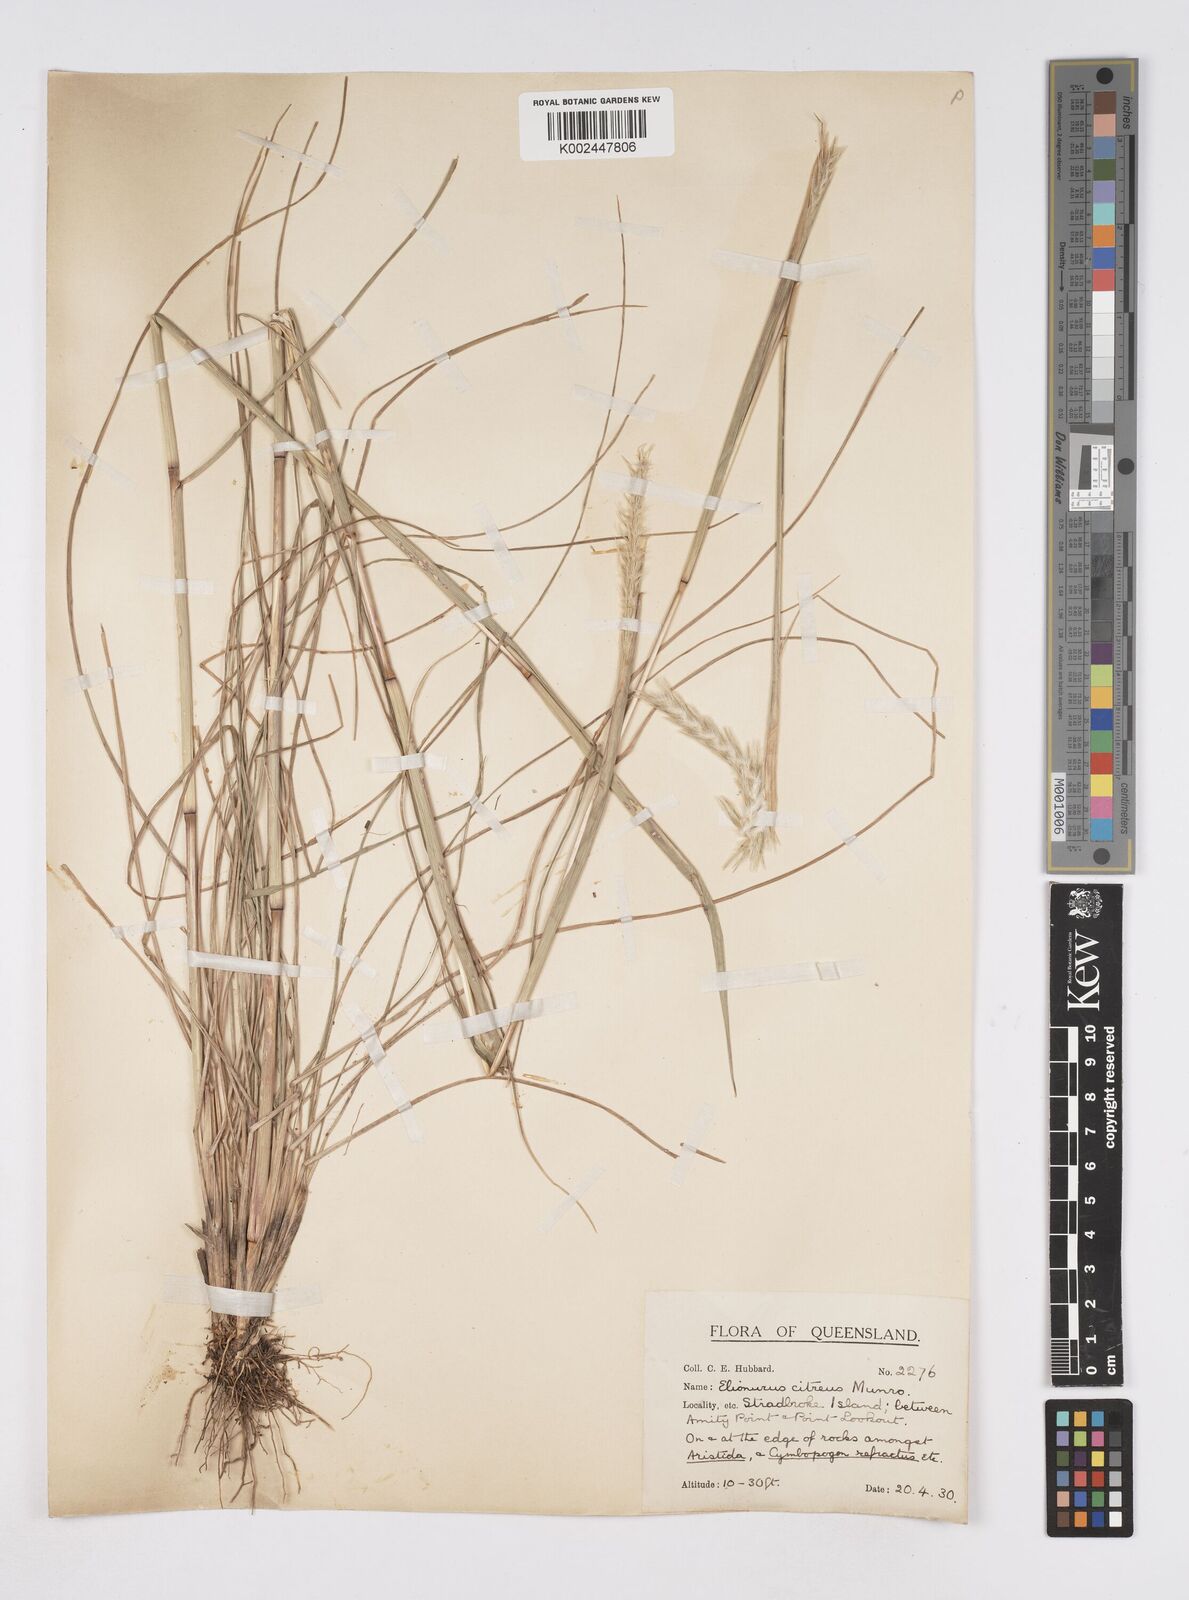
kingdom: Plantae
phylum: Tracheophyta
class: Liliopsida
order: Poales
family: Poaceae
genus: Elionurus
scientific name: Elionurus citreus
